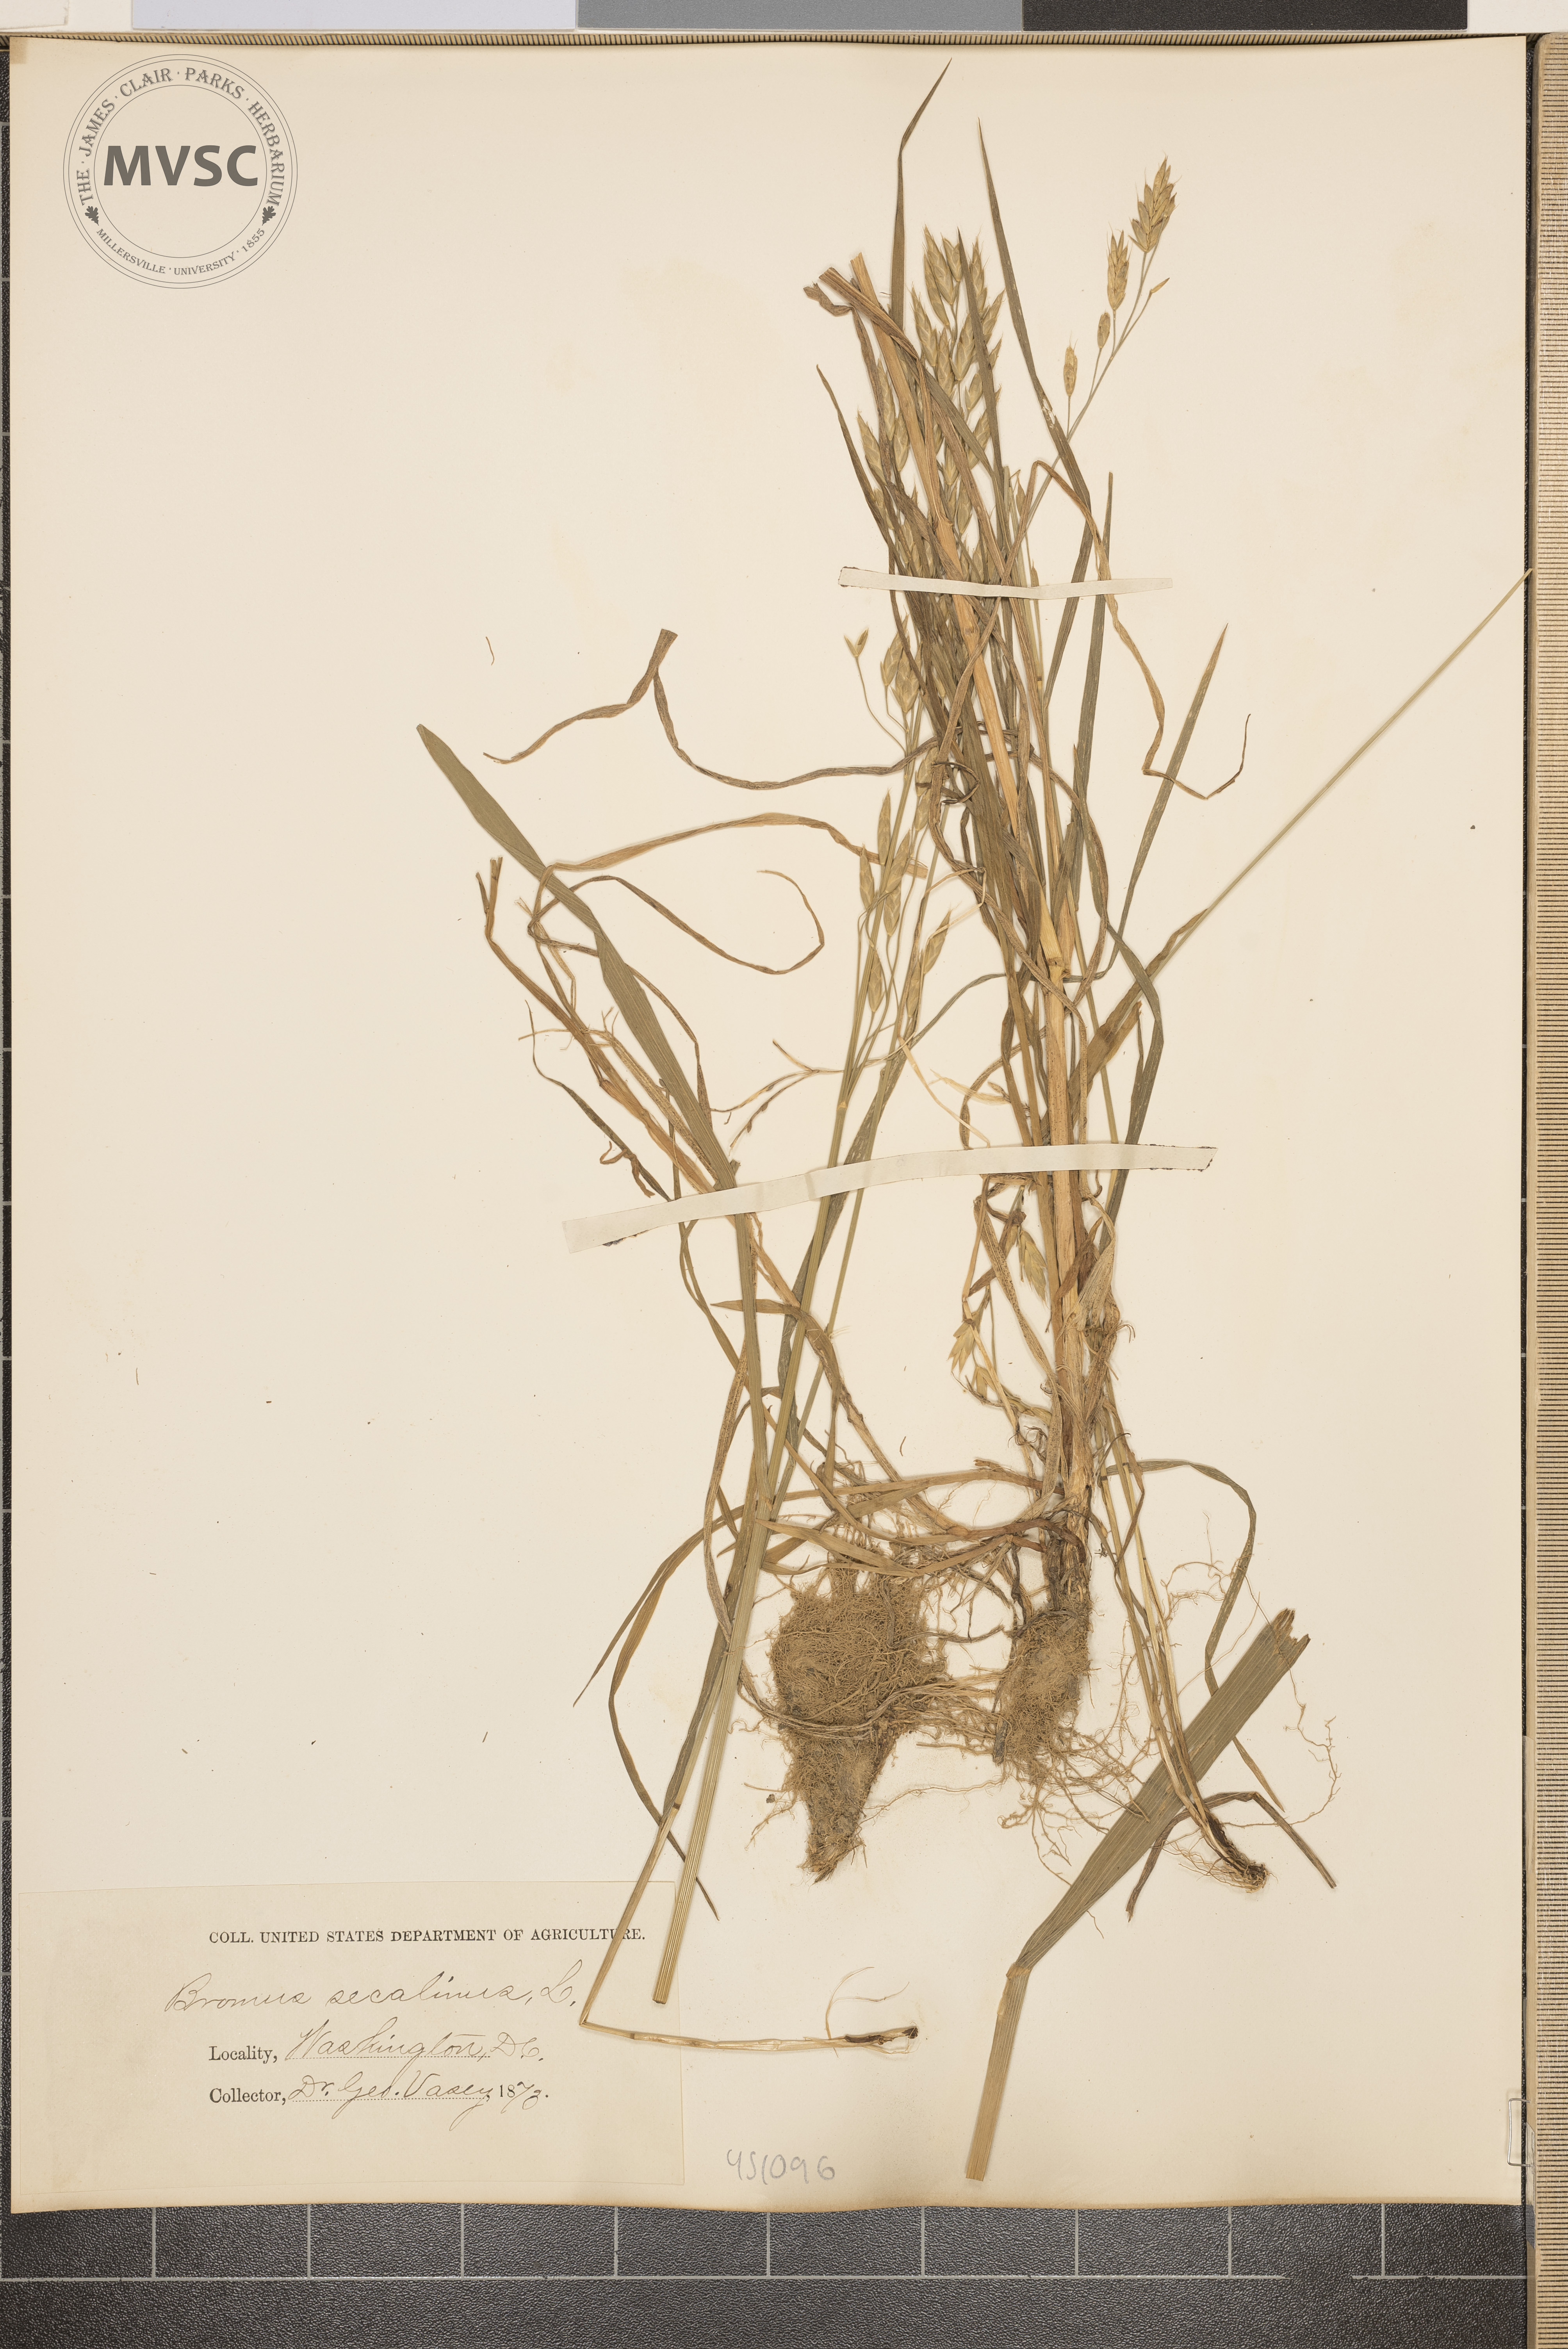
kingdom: Plantae
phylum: Tracheophyta
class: Liliopsida
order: Poales
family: Poaceae
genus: Bromus
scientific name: Bromus secalinus
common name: Rye brome
